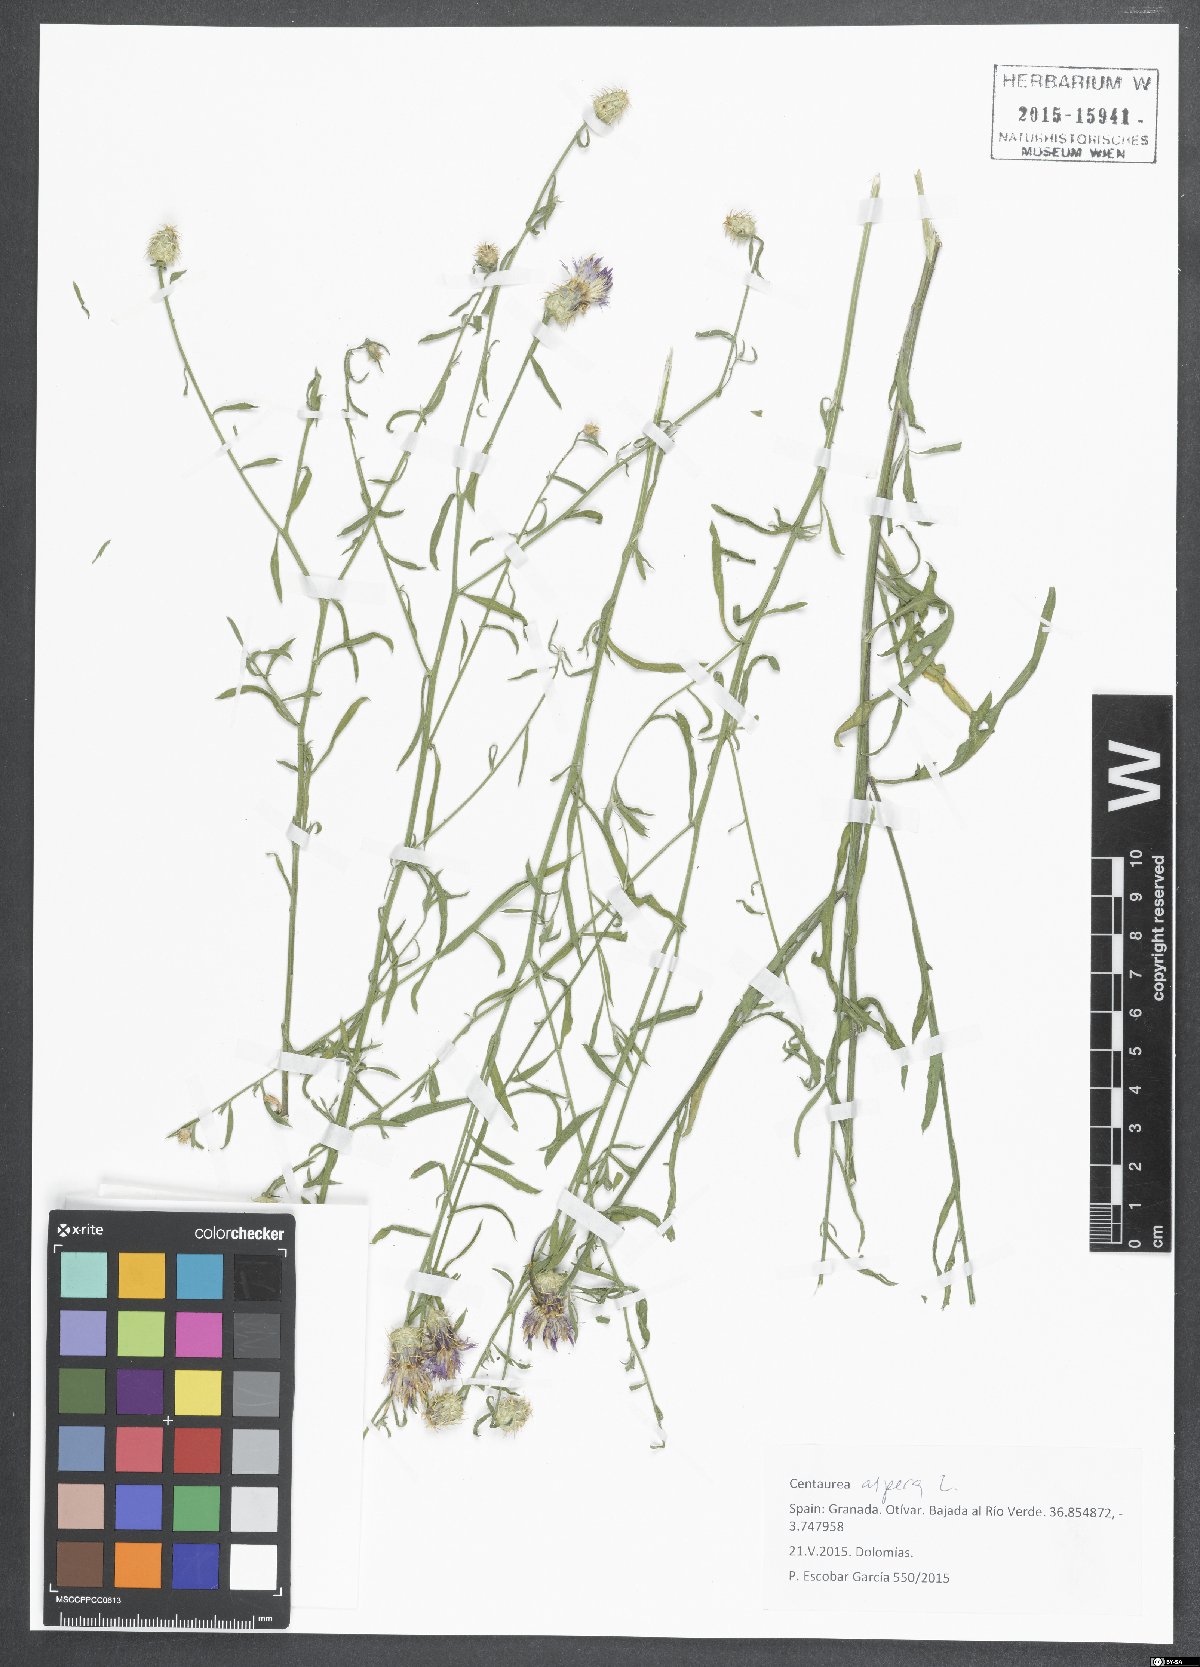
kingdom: Plantae
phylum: Tracheophyta
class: Magnoliopsida
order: Asterales
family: Asteraceae
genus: Centaurea
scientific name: Centaurea aspera
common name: Rough star-thistle
